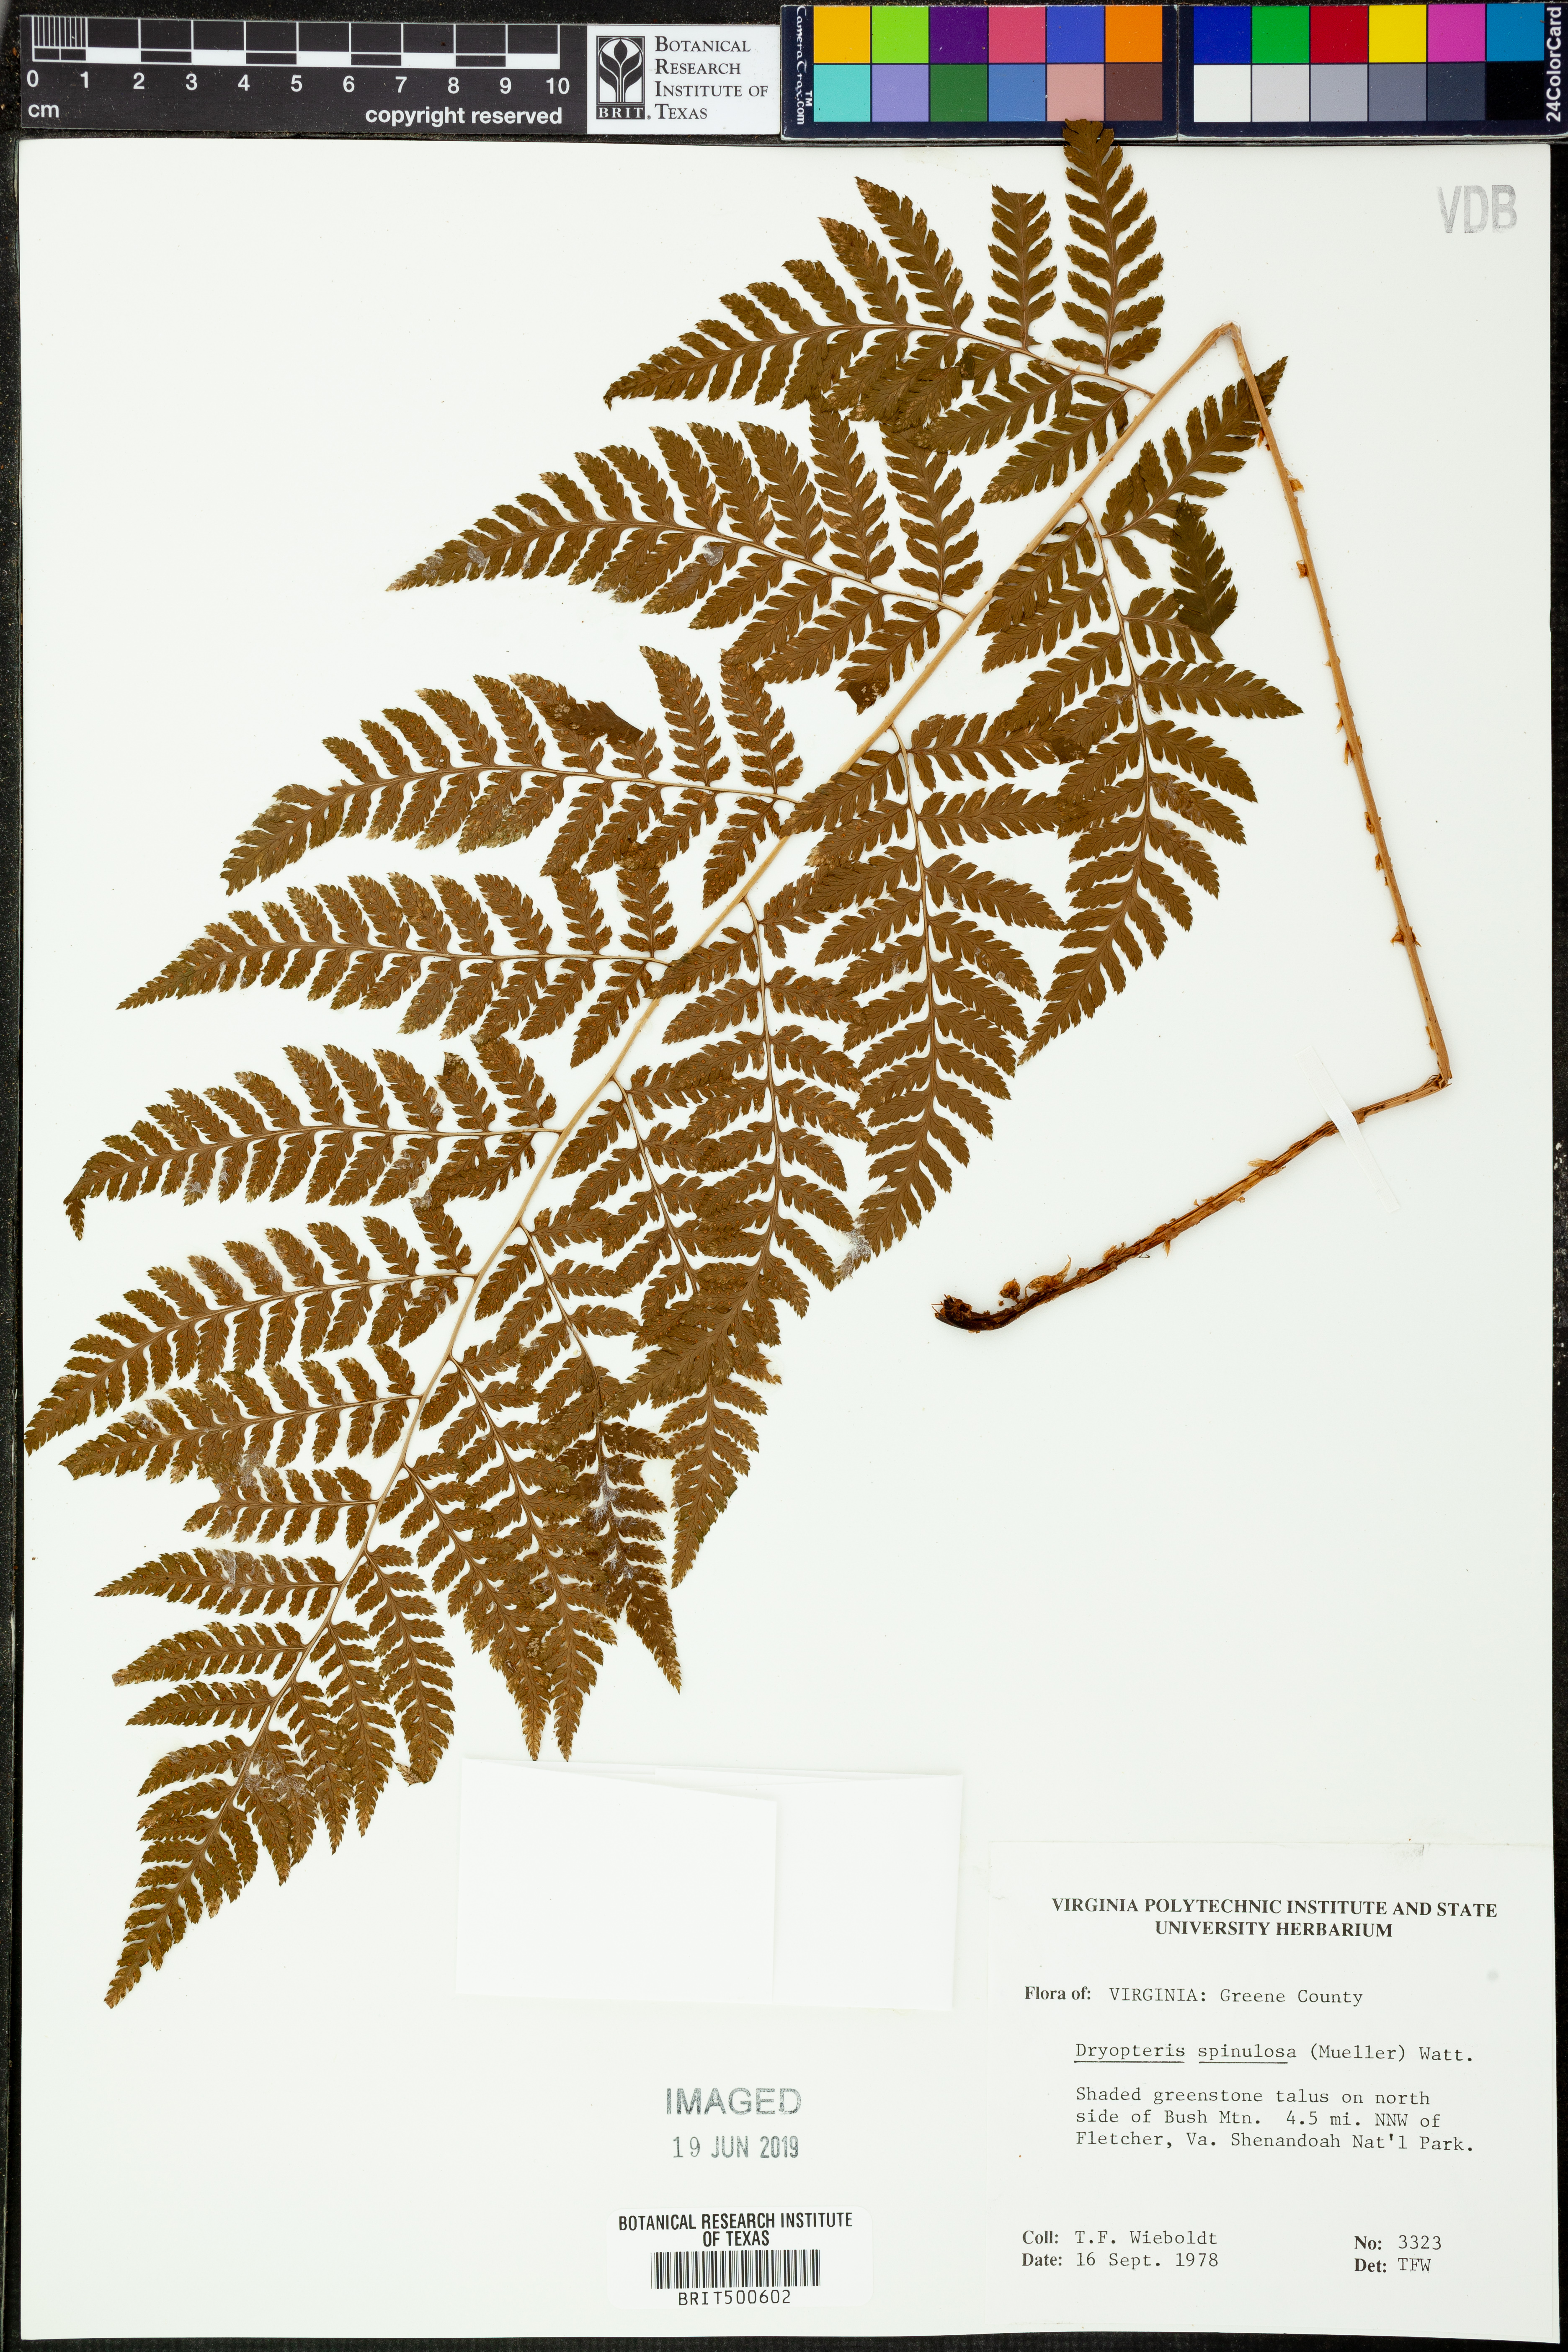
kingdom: Plantae
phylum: Tracheophyta
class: Polypodiopsida
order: Polypodiales
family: Dryopteridaceae
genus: Dryopteris
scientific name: Dryopteris carthusiana
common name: Narrow buckler-fern
